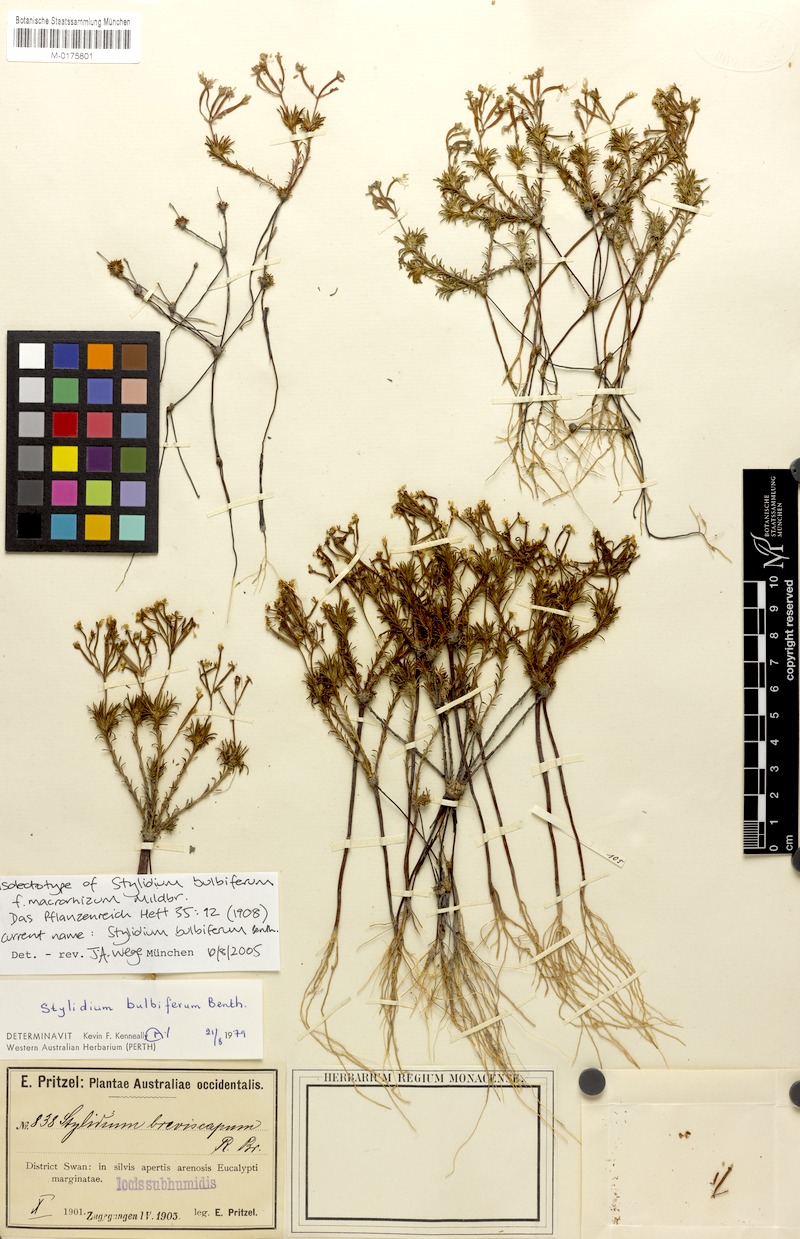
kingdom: Plantae
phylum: Tracheophyta
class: Magnoliopsida
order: Asterales
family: Stylidiaceae
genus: Stylidium
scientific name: Stylidium bulbiferum
